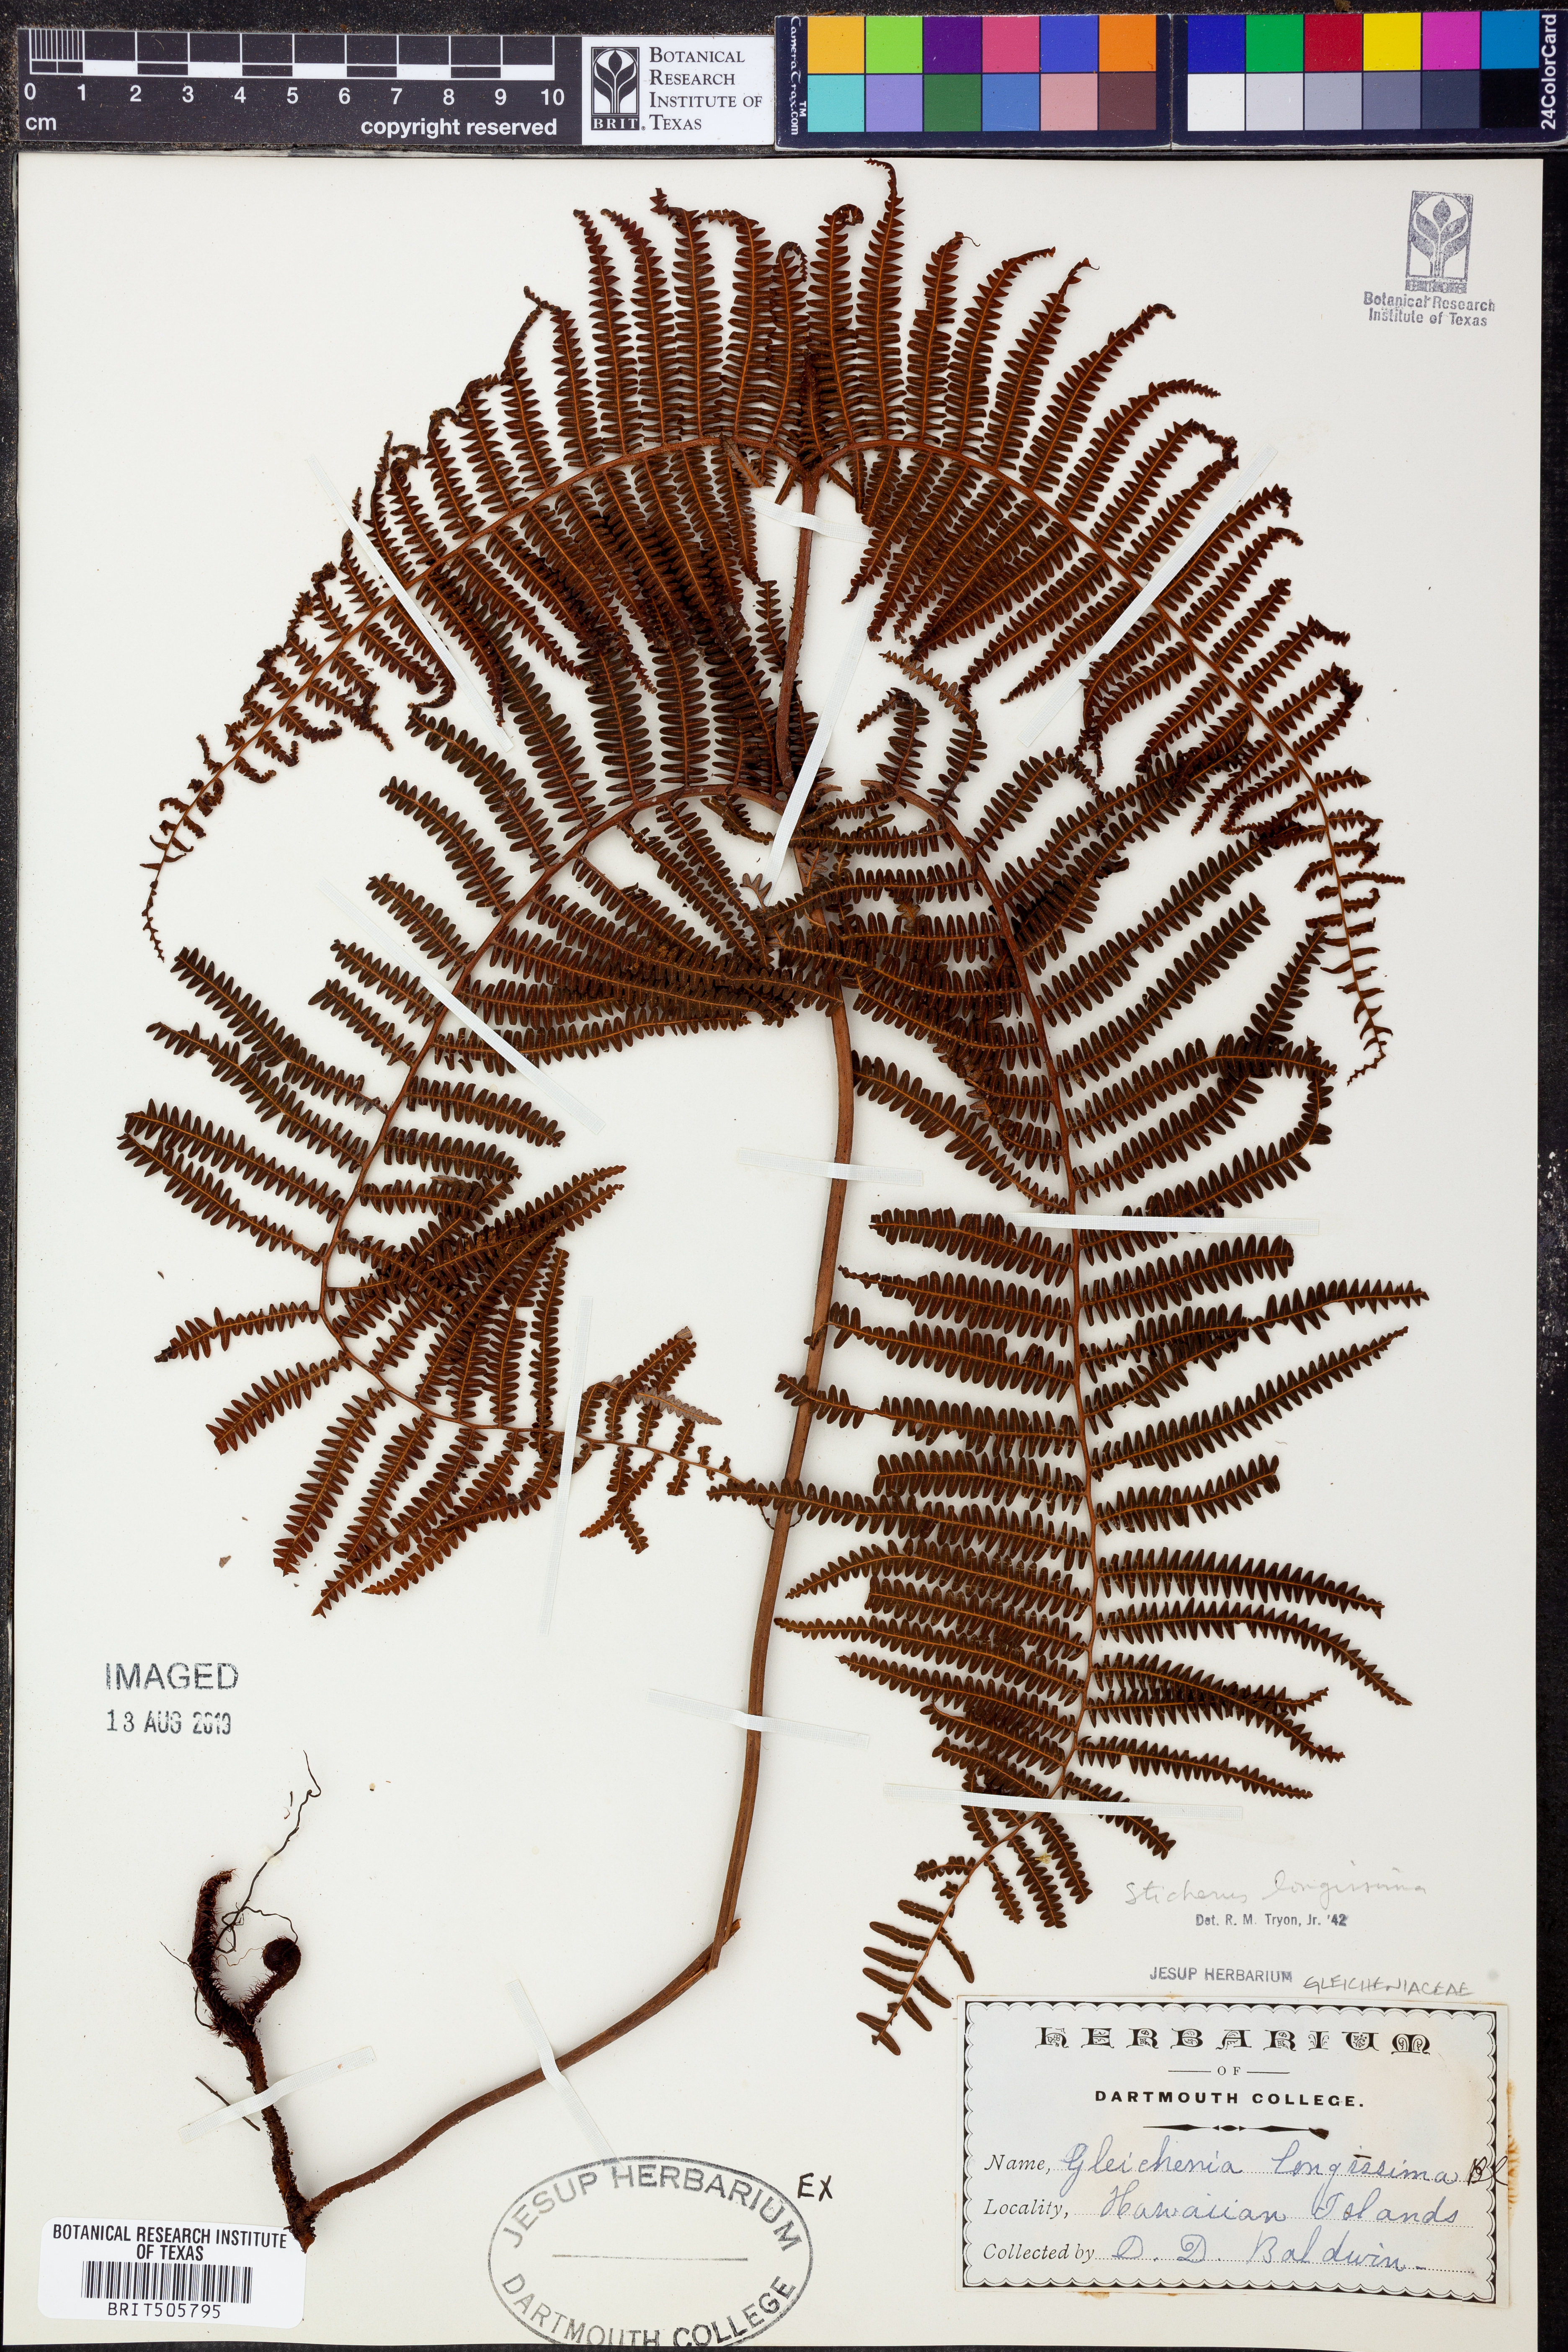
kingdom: Plantae
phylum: Tracheophyta
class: Polypodiopsida
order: Gleicheniales
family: Gleicheniaceae
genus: Sticherus
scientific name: Sticherus
